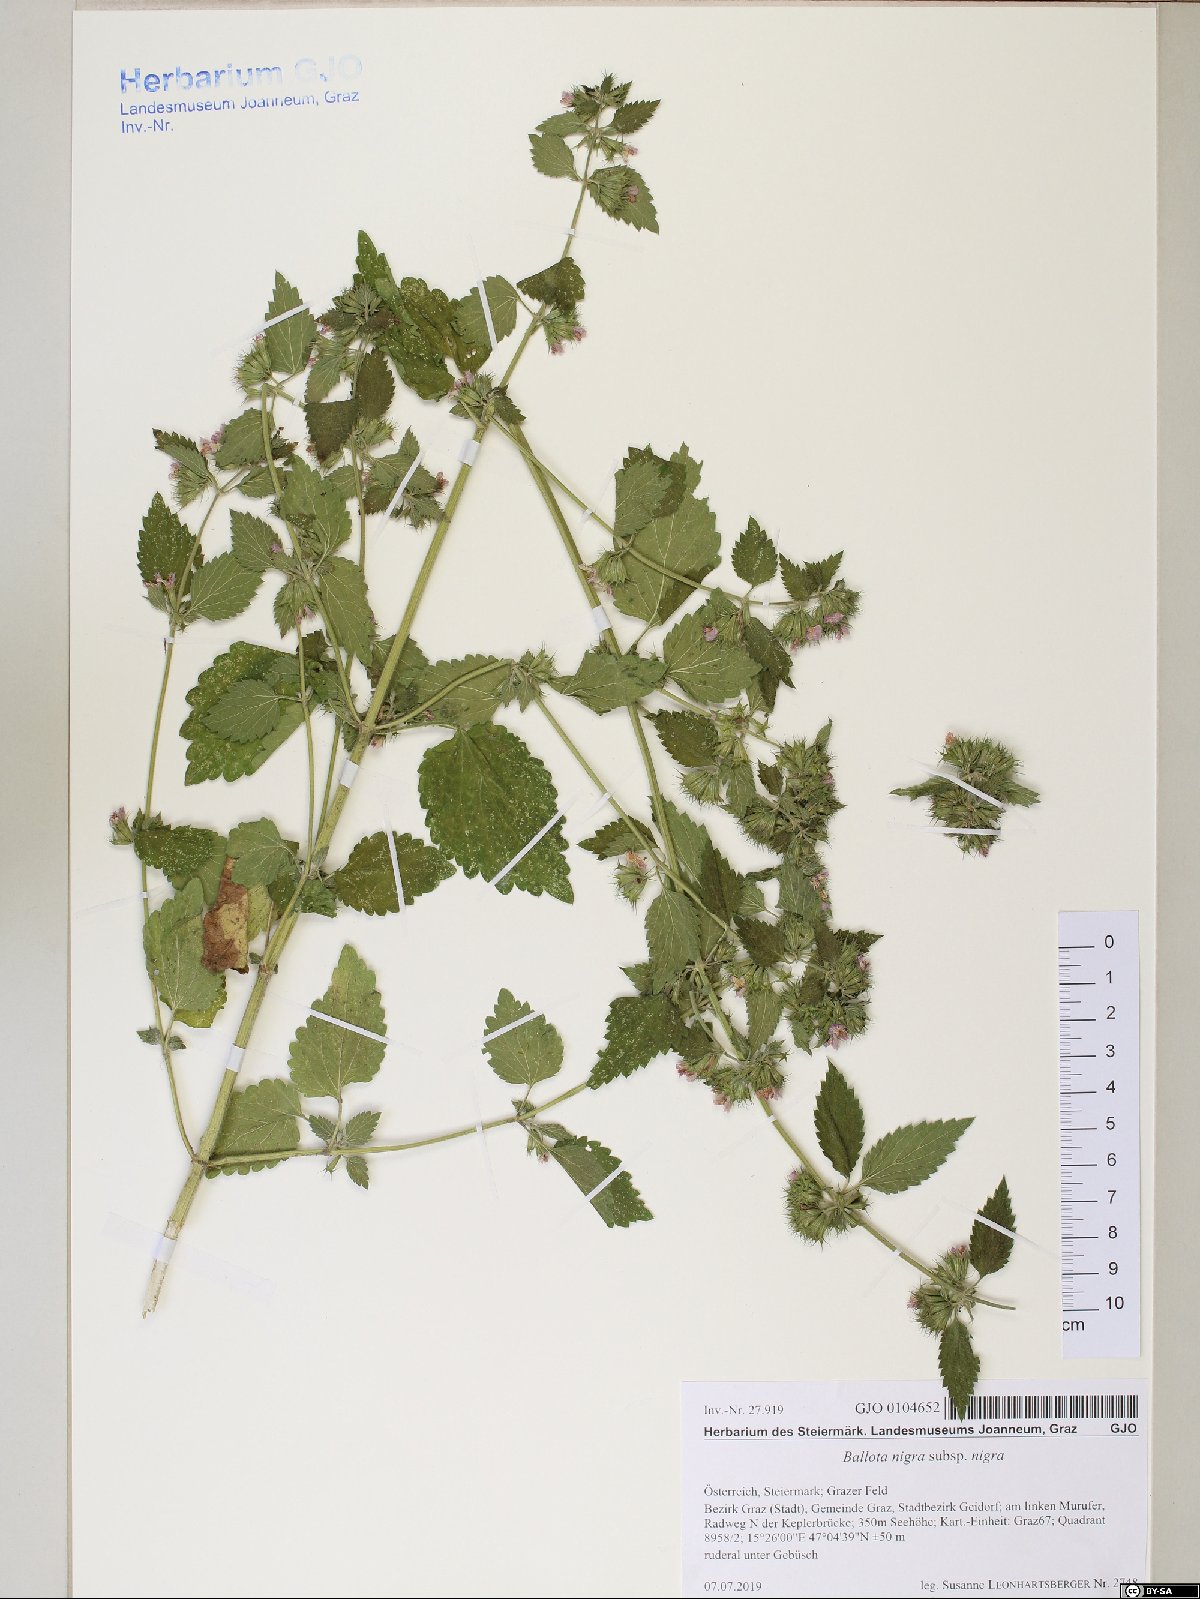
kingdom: Plantae
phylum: Tracheophyta
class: Magnoliopsida
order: Lamiales
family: Lamiaceae
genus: Ballota
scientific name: Ballota nigra
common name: Black horehound
